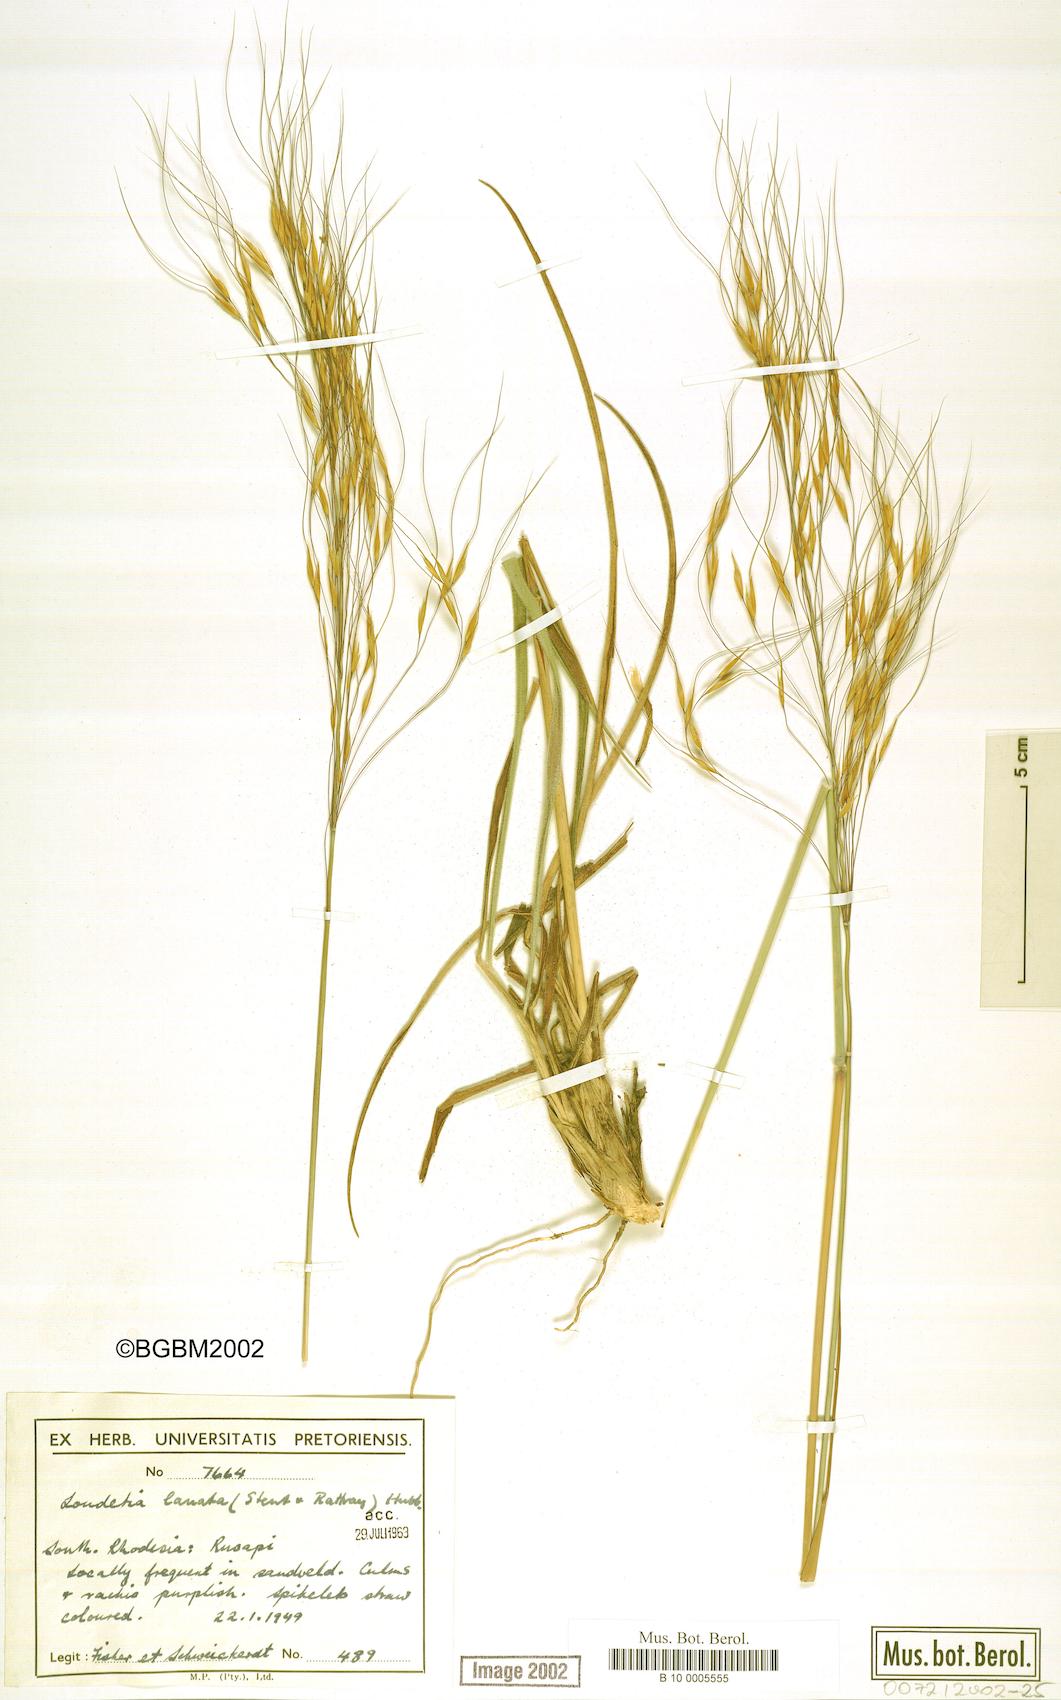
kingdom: Plantae
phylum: Tracheophyta
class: Liliopsida
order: Poales
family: Poaceae
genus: Loudetia
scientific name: Loudetia lanata
